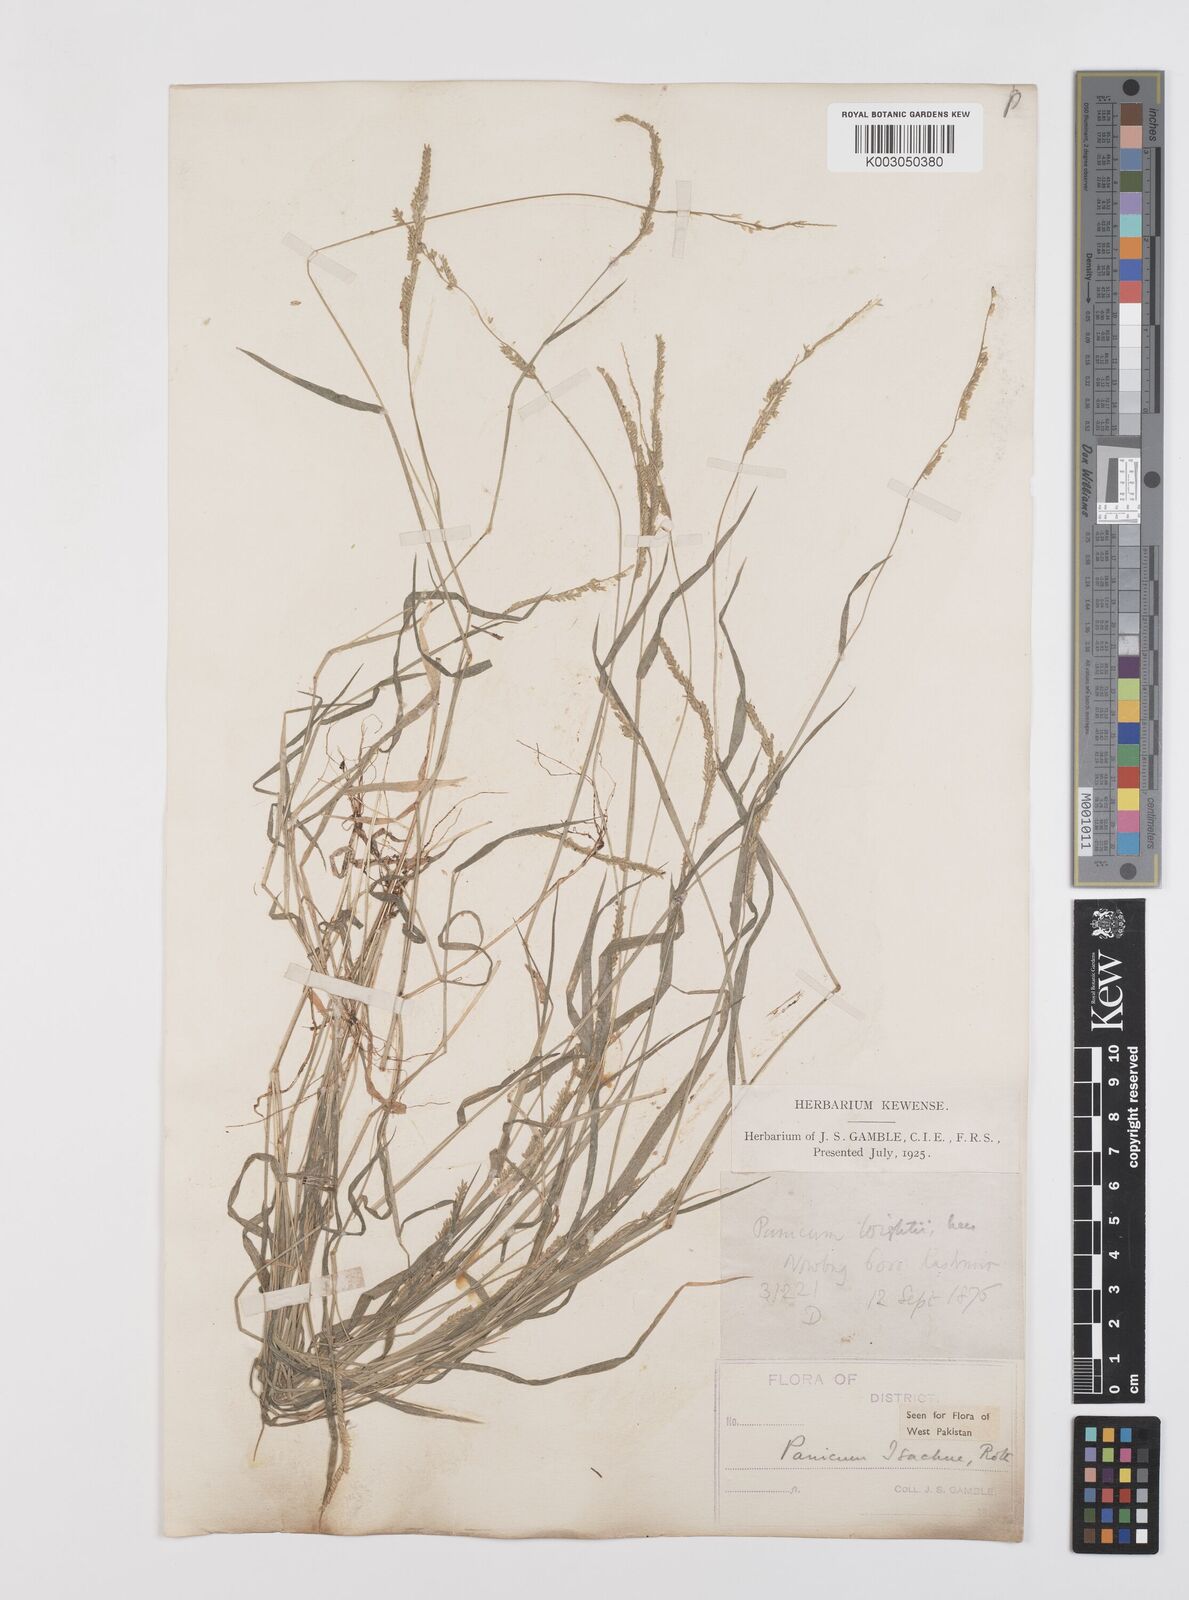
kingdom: Plantae
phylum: Tracheophyta
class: Liliopsida
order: Poales
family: Poaceae
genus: Moorochloa
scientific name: Moorochloa eruciformis
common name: Sweet signalgrass
